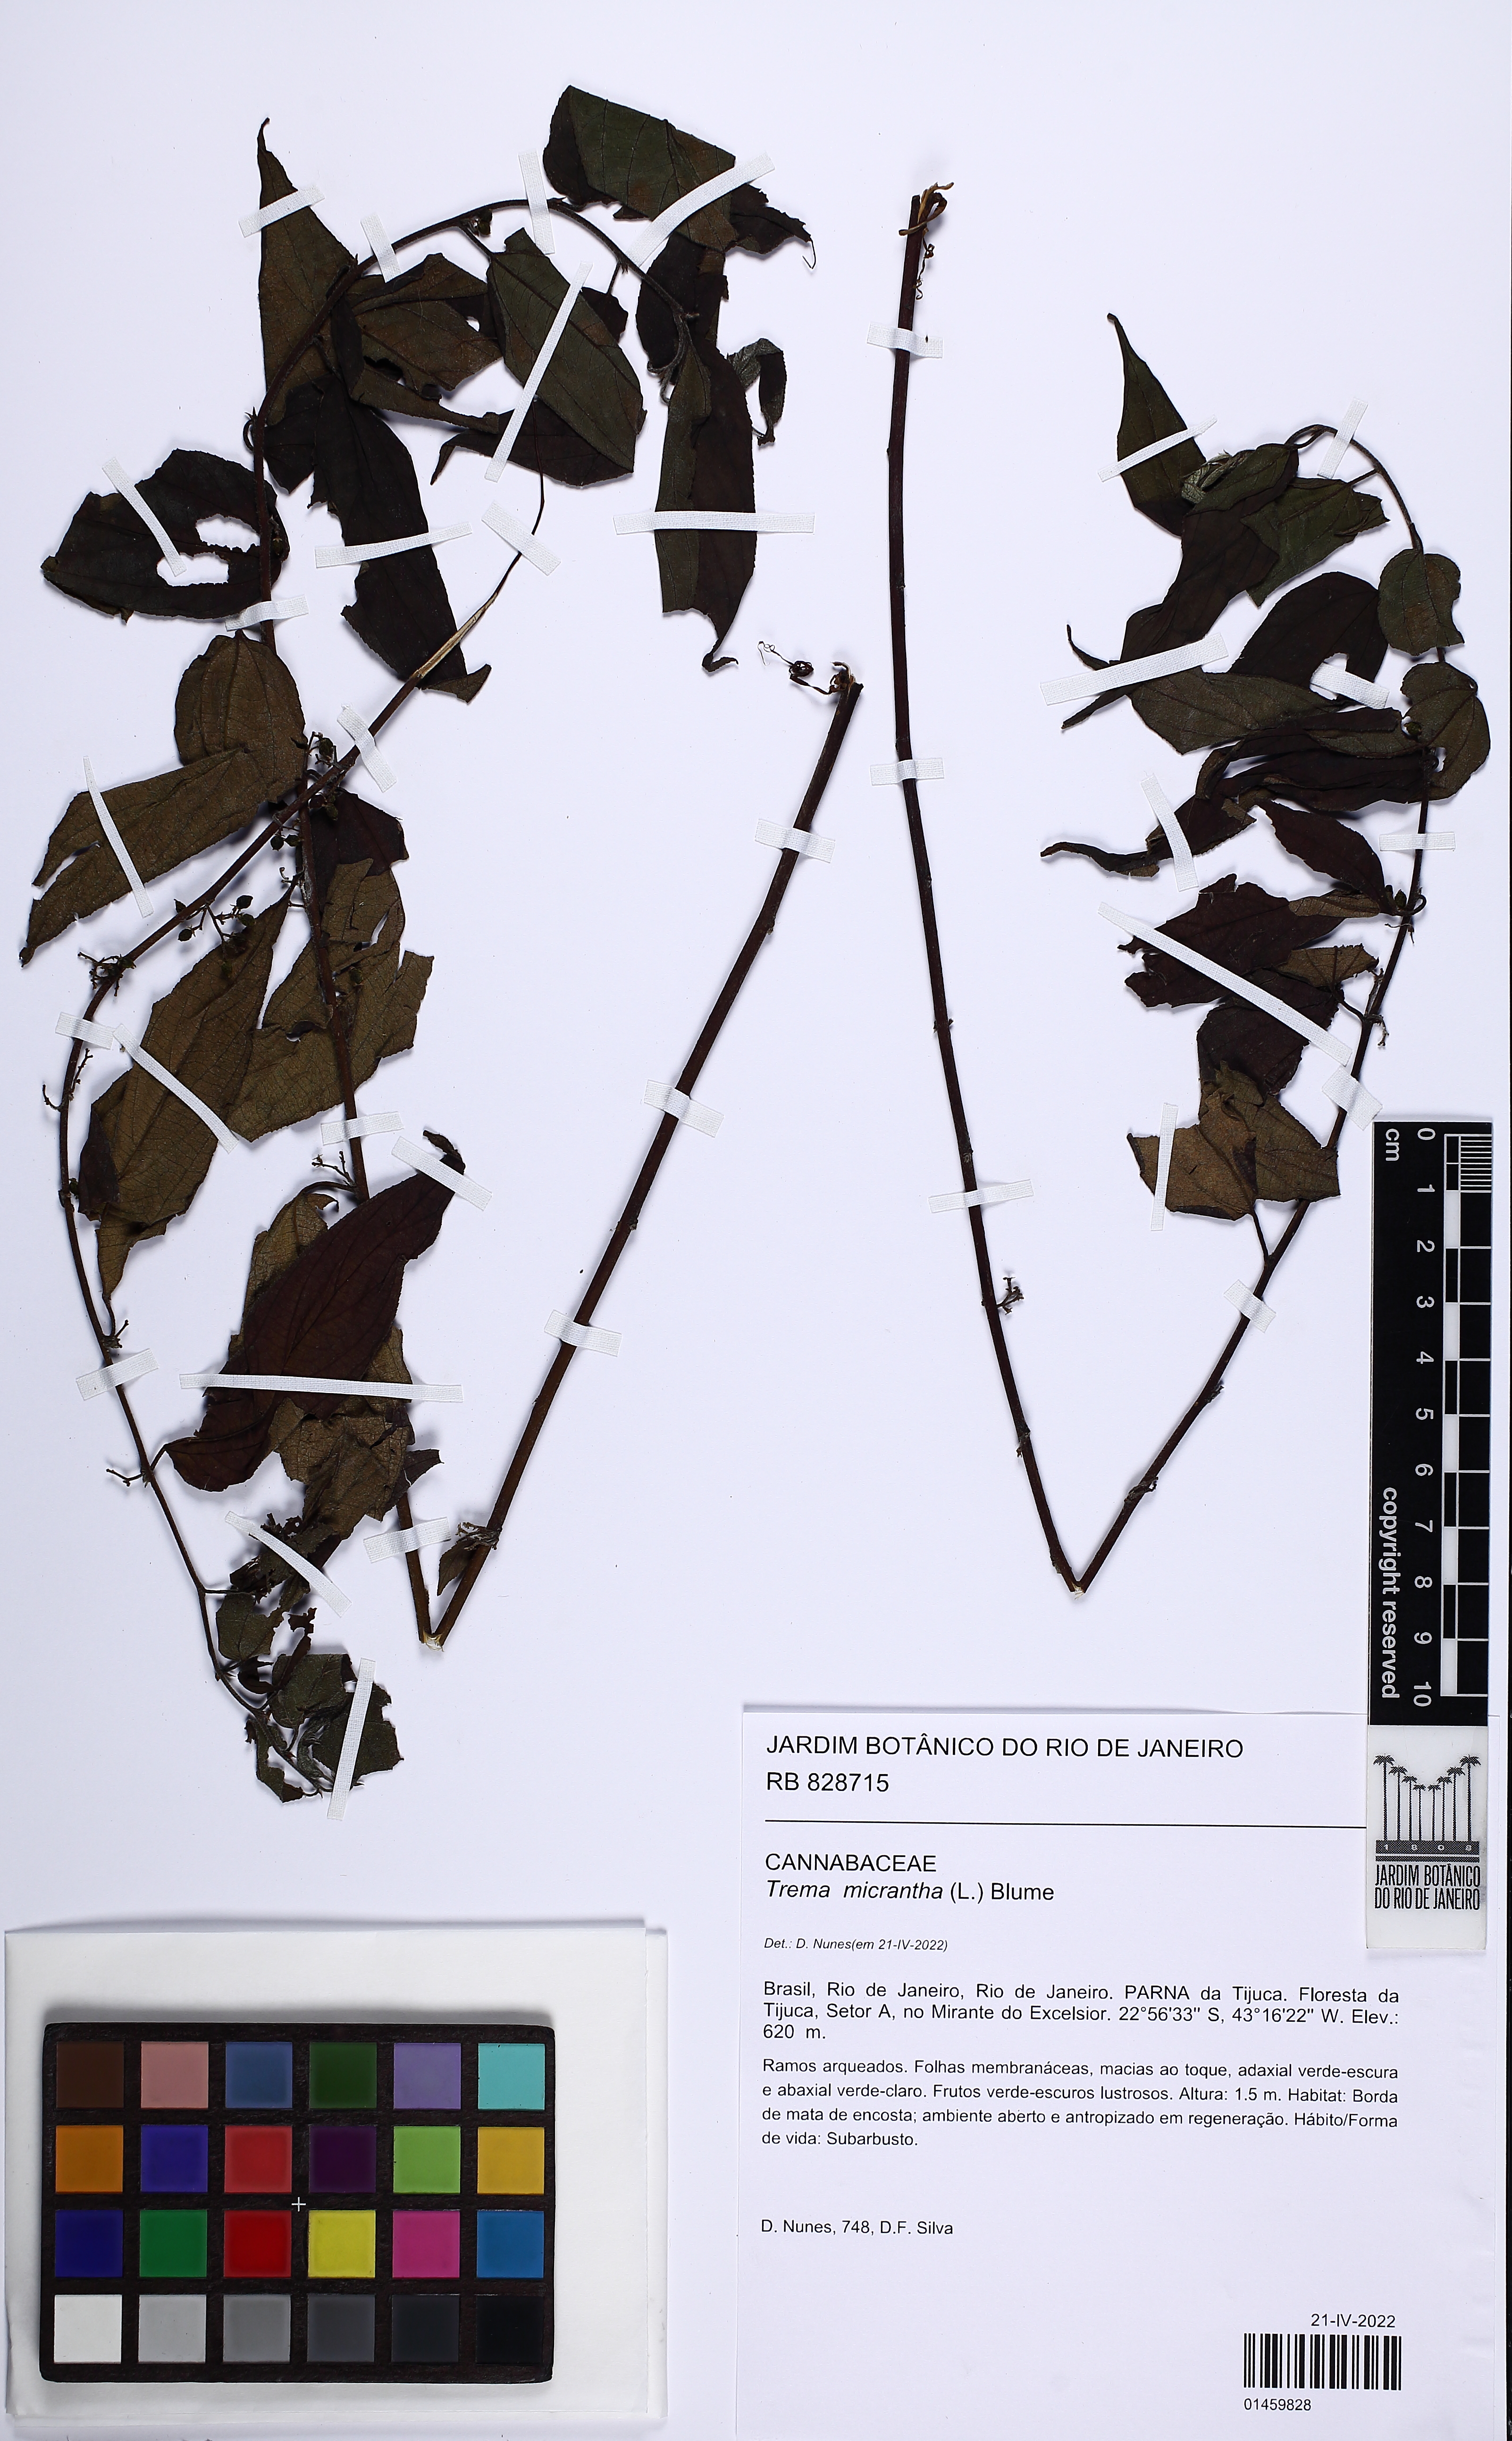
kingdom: Plantae
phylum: Tracheophyta
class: Magnoliopsida
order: Rosales
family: Cannabaceae
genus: Trema
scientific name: Trema micranthum
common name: Jamaican nettletree
